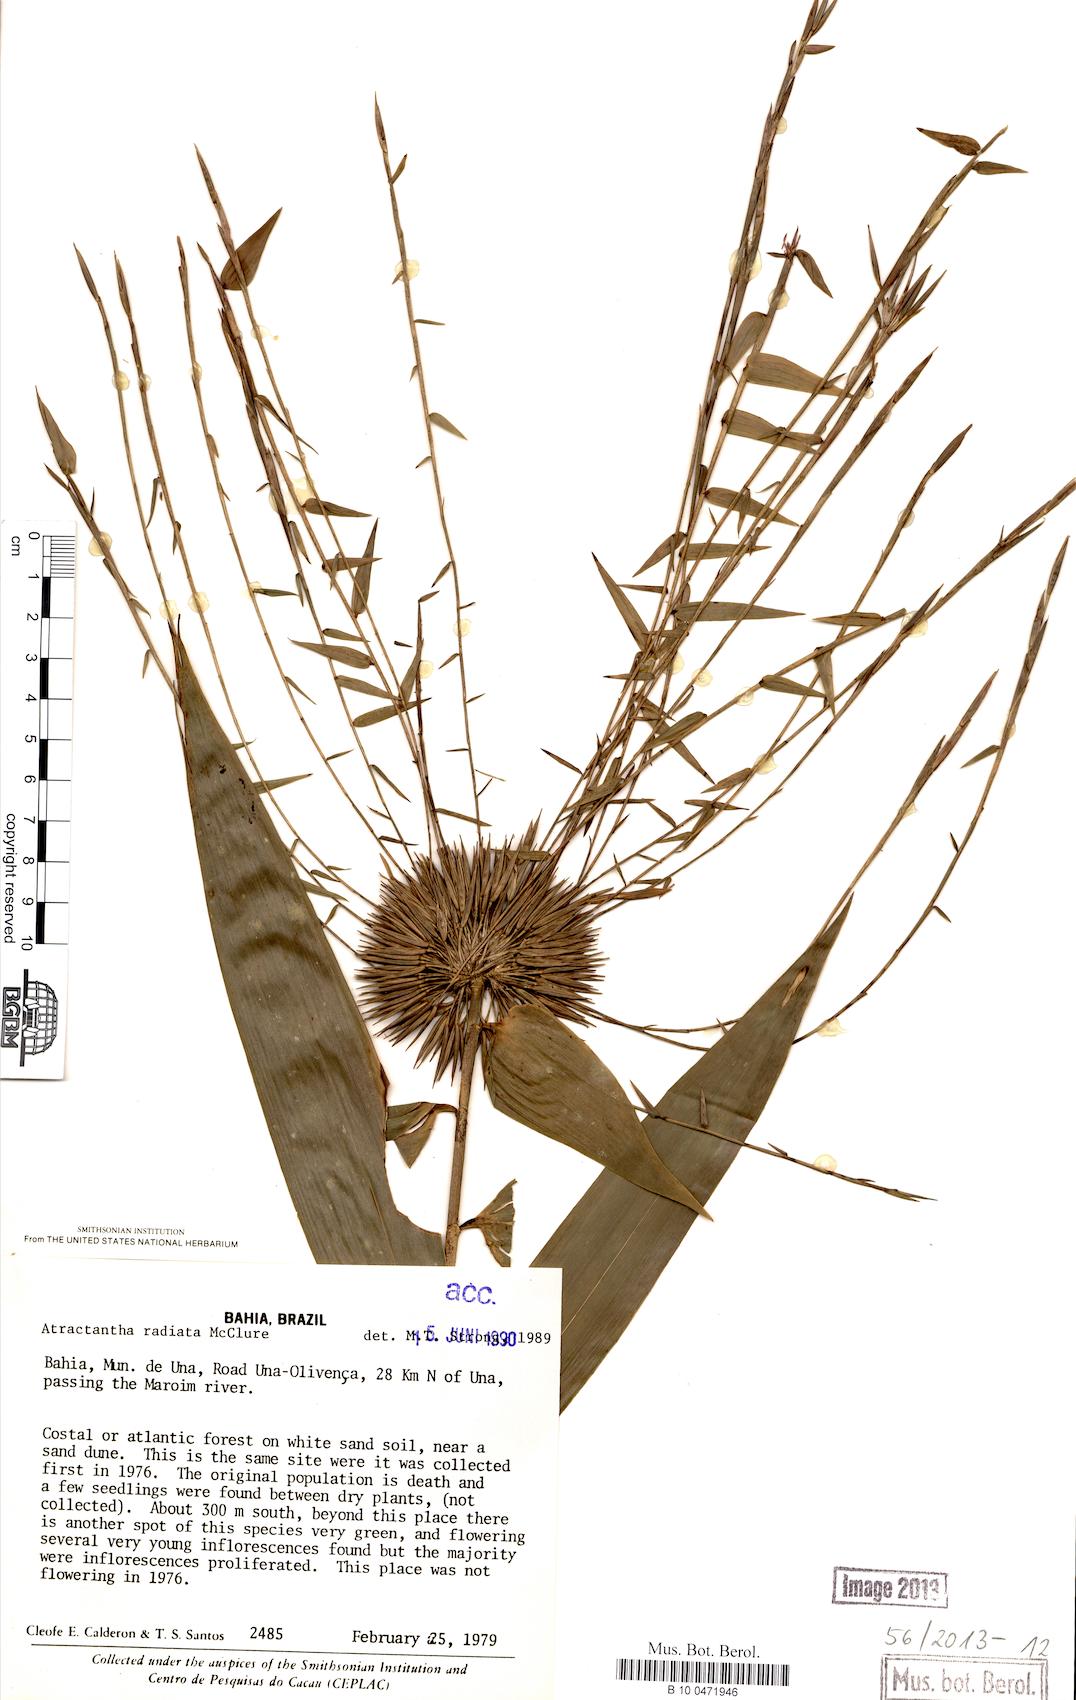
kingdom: Plantae
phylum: Tracheophyta
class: Liliopsida
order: Poales
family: Poaceae
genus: Atractantha
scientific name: Atractantha radiata
